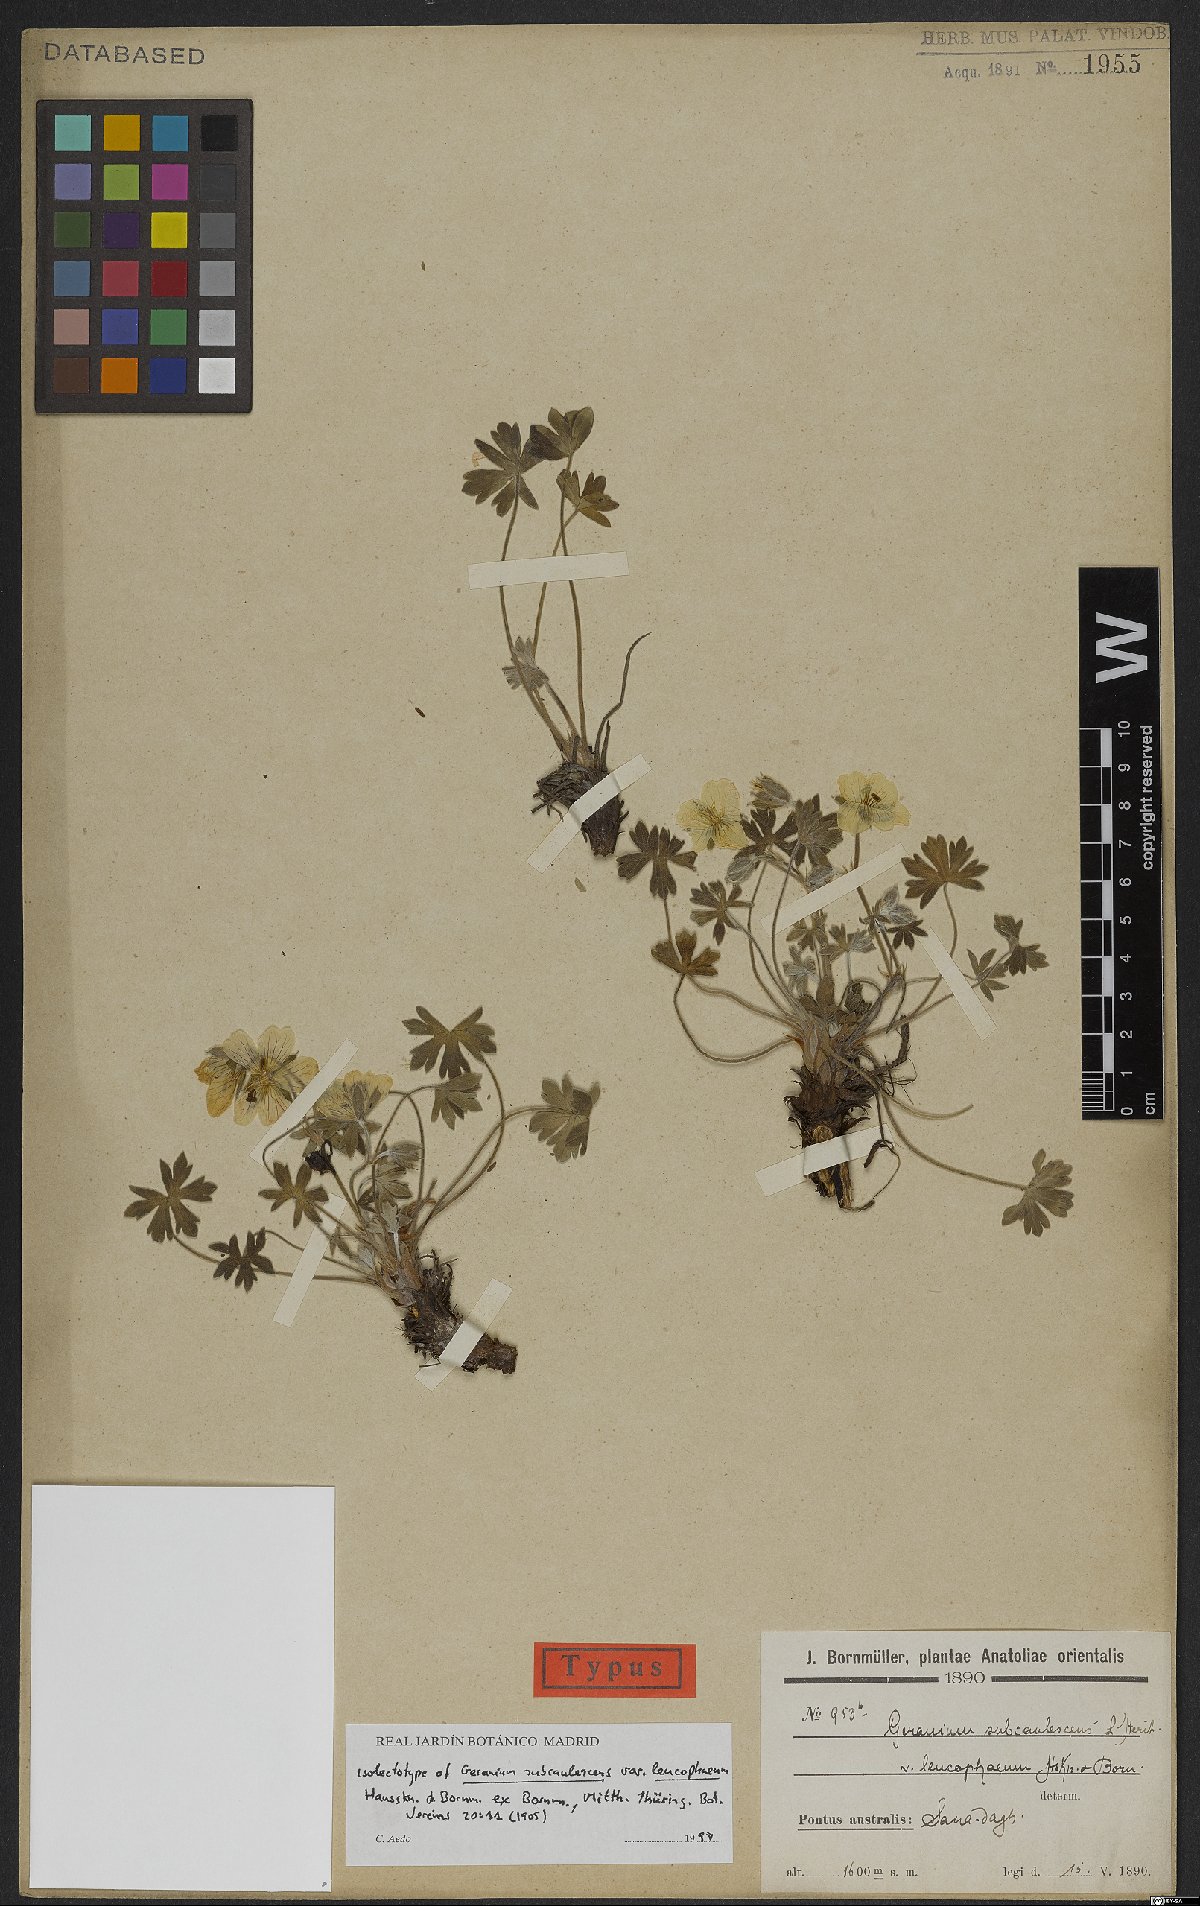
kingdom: Plantae
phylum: Tracheophyta
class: Magnoliopsida
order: Geraniales
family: Geraniaceae
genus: Geranium
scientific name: Geranium subacutum
